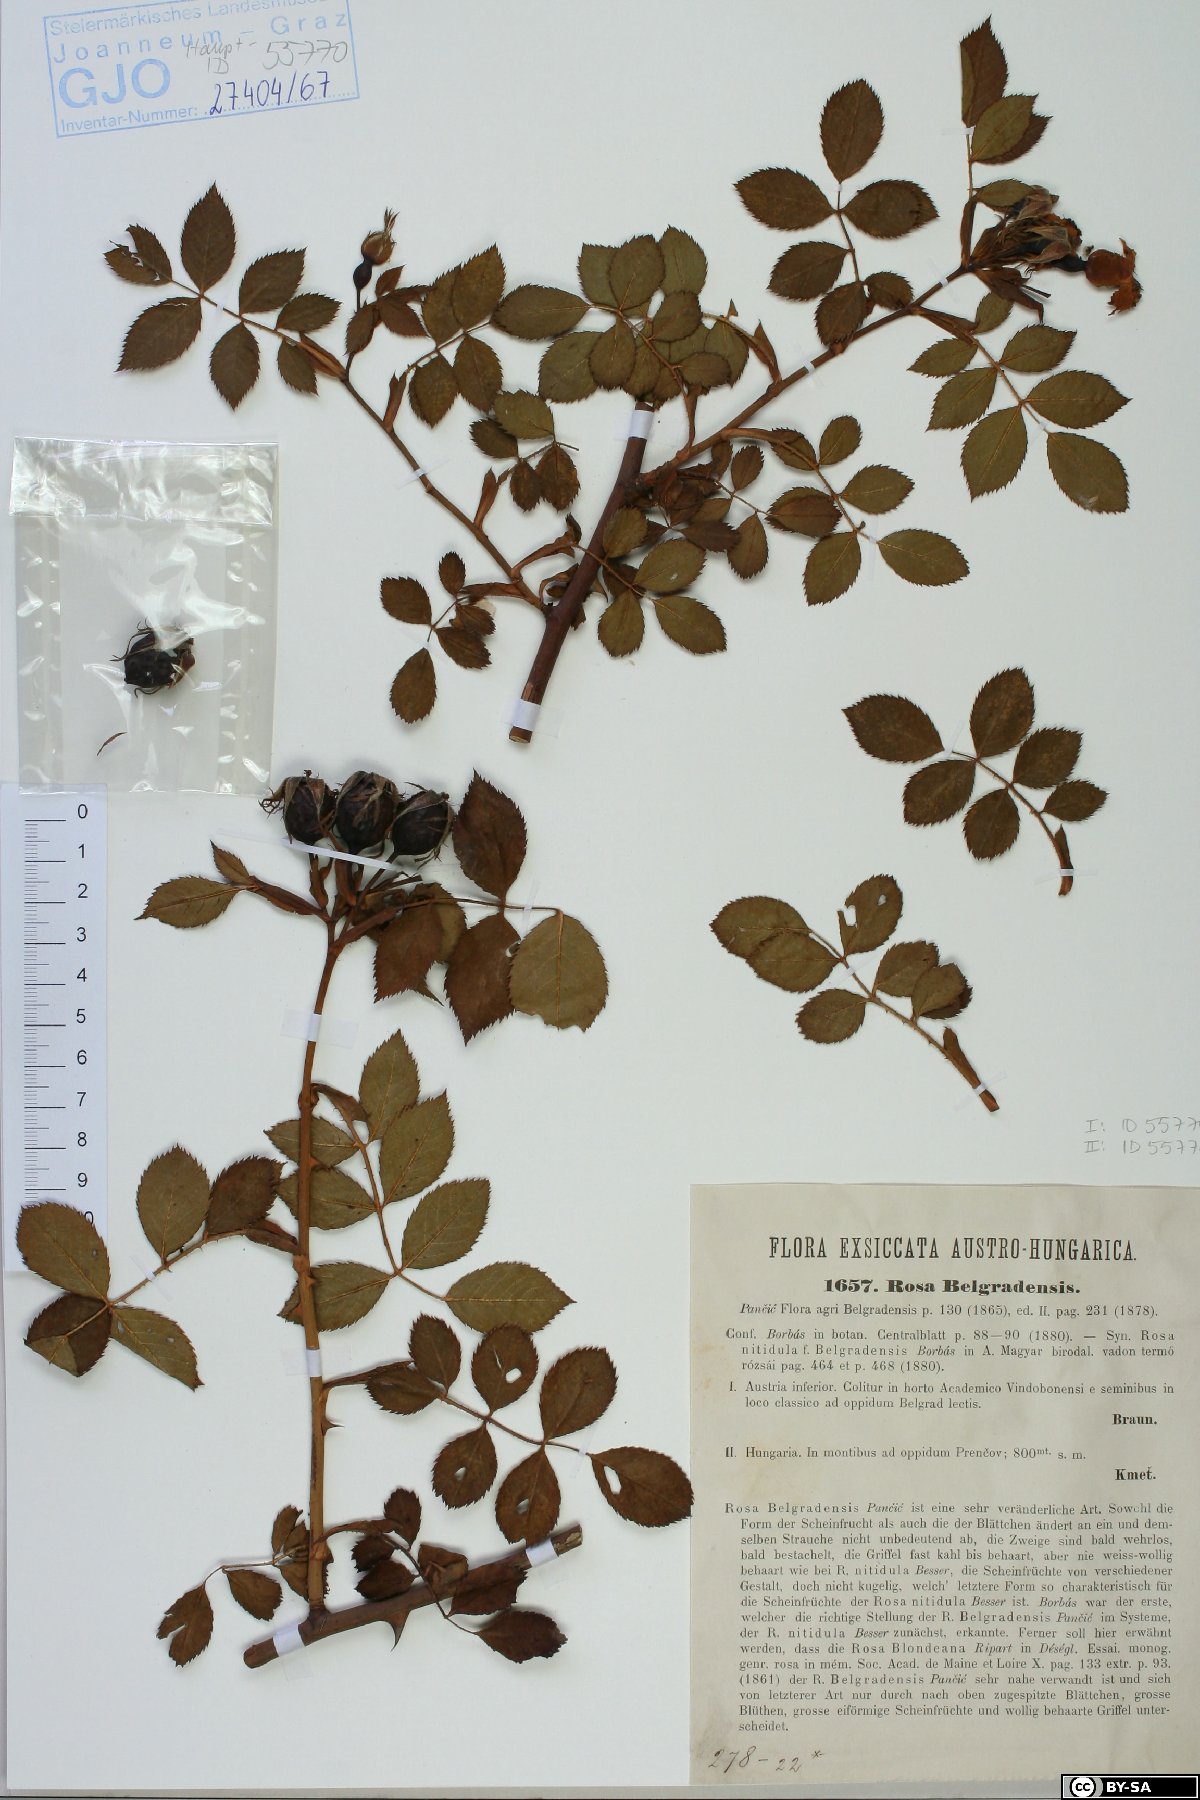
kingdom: Plantae
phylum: Tracheophyta
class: Magnoliopsida
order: Rosales
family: Rosaceae
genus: Rosa
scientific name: Rosa belnensis
